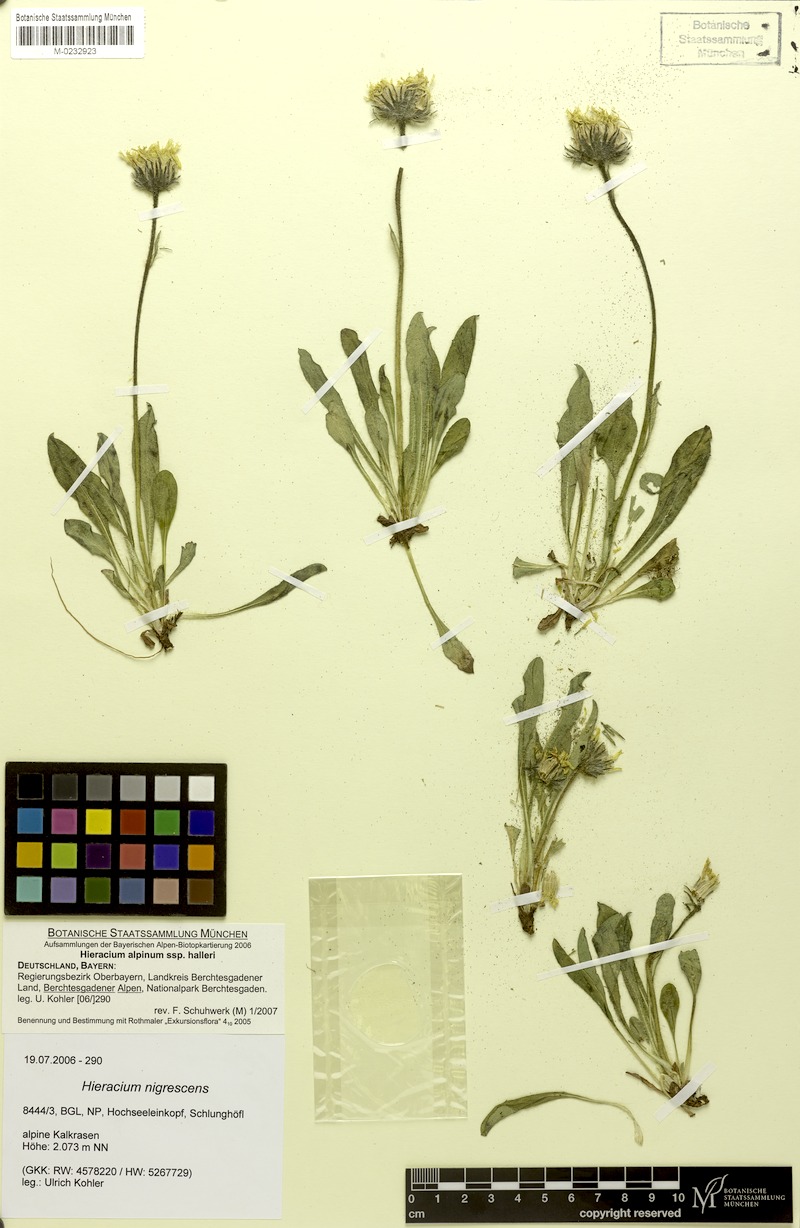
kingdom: Plantae
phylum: Tracheophyta
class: Magnoliopsida
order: Asterales
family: Asteraceae
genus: Hieracium
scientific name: Hieracium alpinum
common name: Alpine hawkweed
